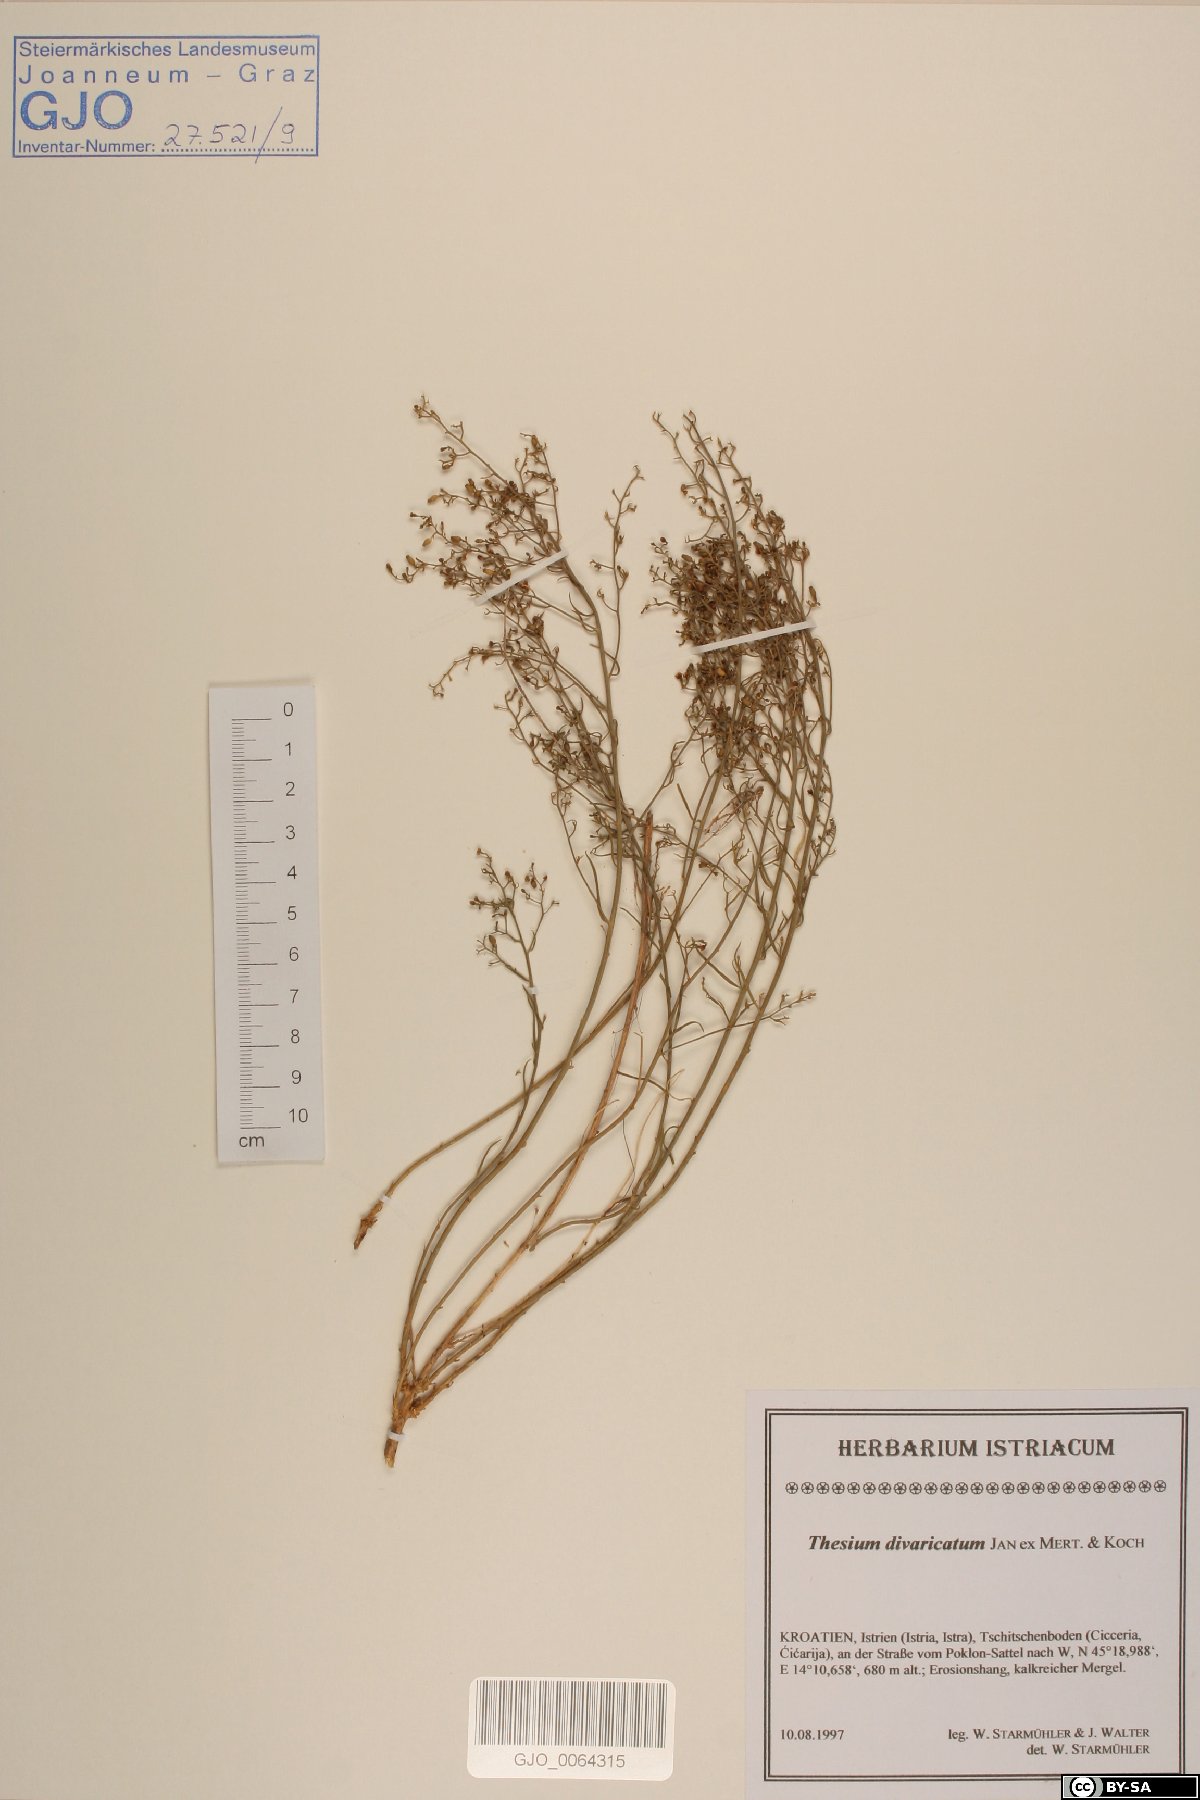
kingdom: Plantae
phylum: Tracheophyta
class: Magnoliopsida
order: Santalales
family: Thesiaceae
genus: Thesium
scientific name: Thesium divaricatum
